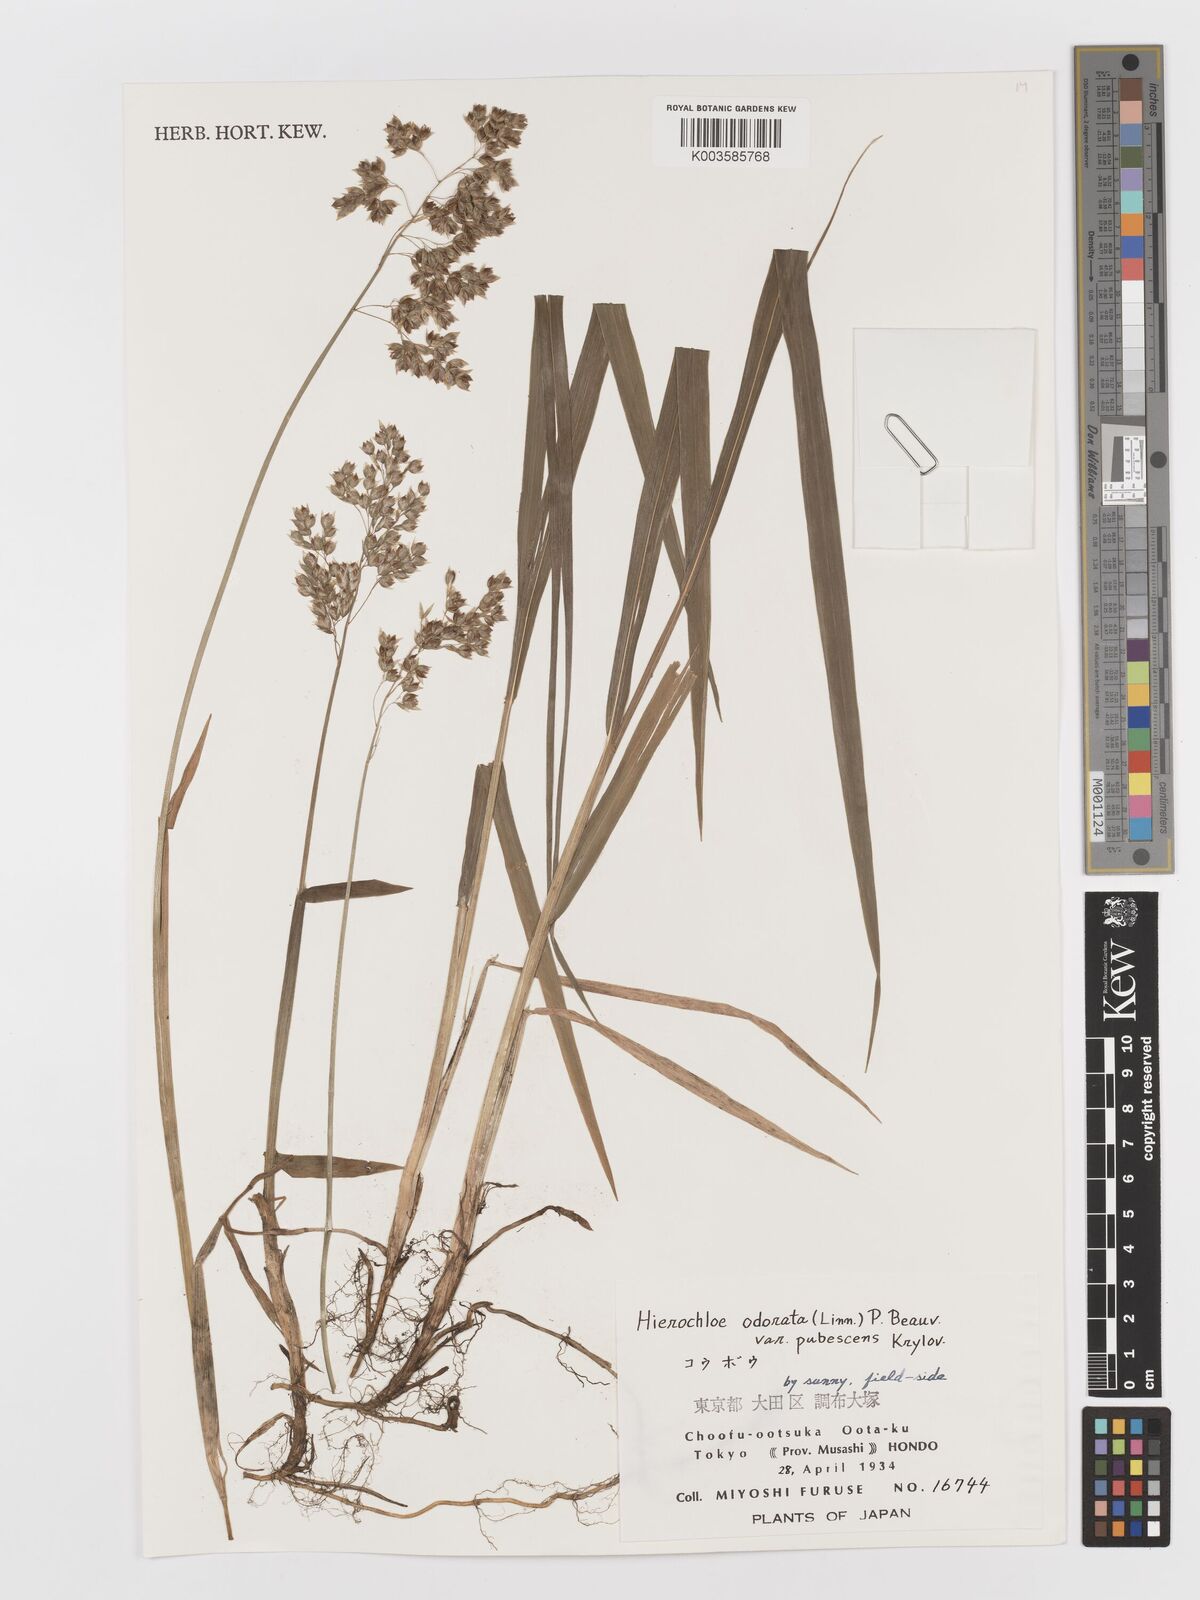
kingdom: Plantae
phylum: Tracheophyta
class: Liliopsida
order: Poales
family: Poaceae
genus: Anthoxanthum
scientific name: Anthoxanthum nitens
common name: Holy grass
